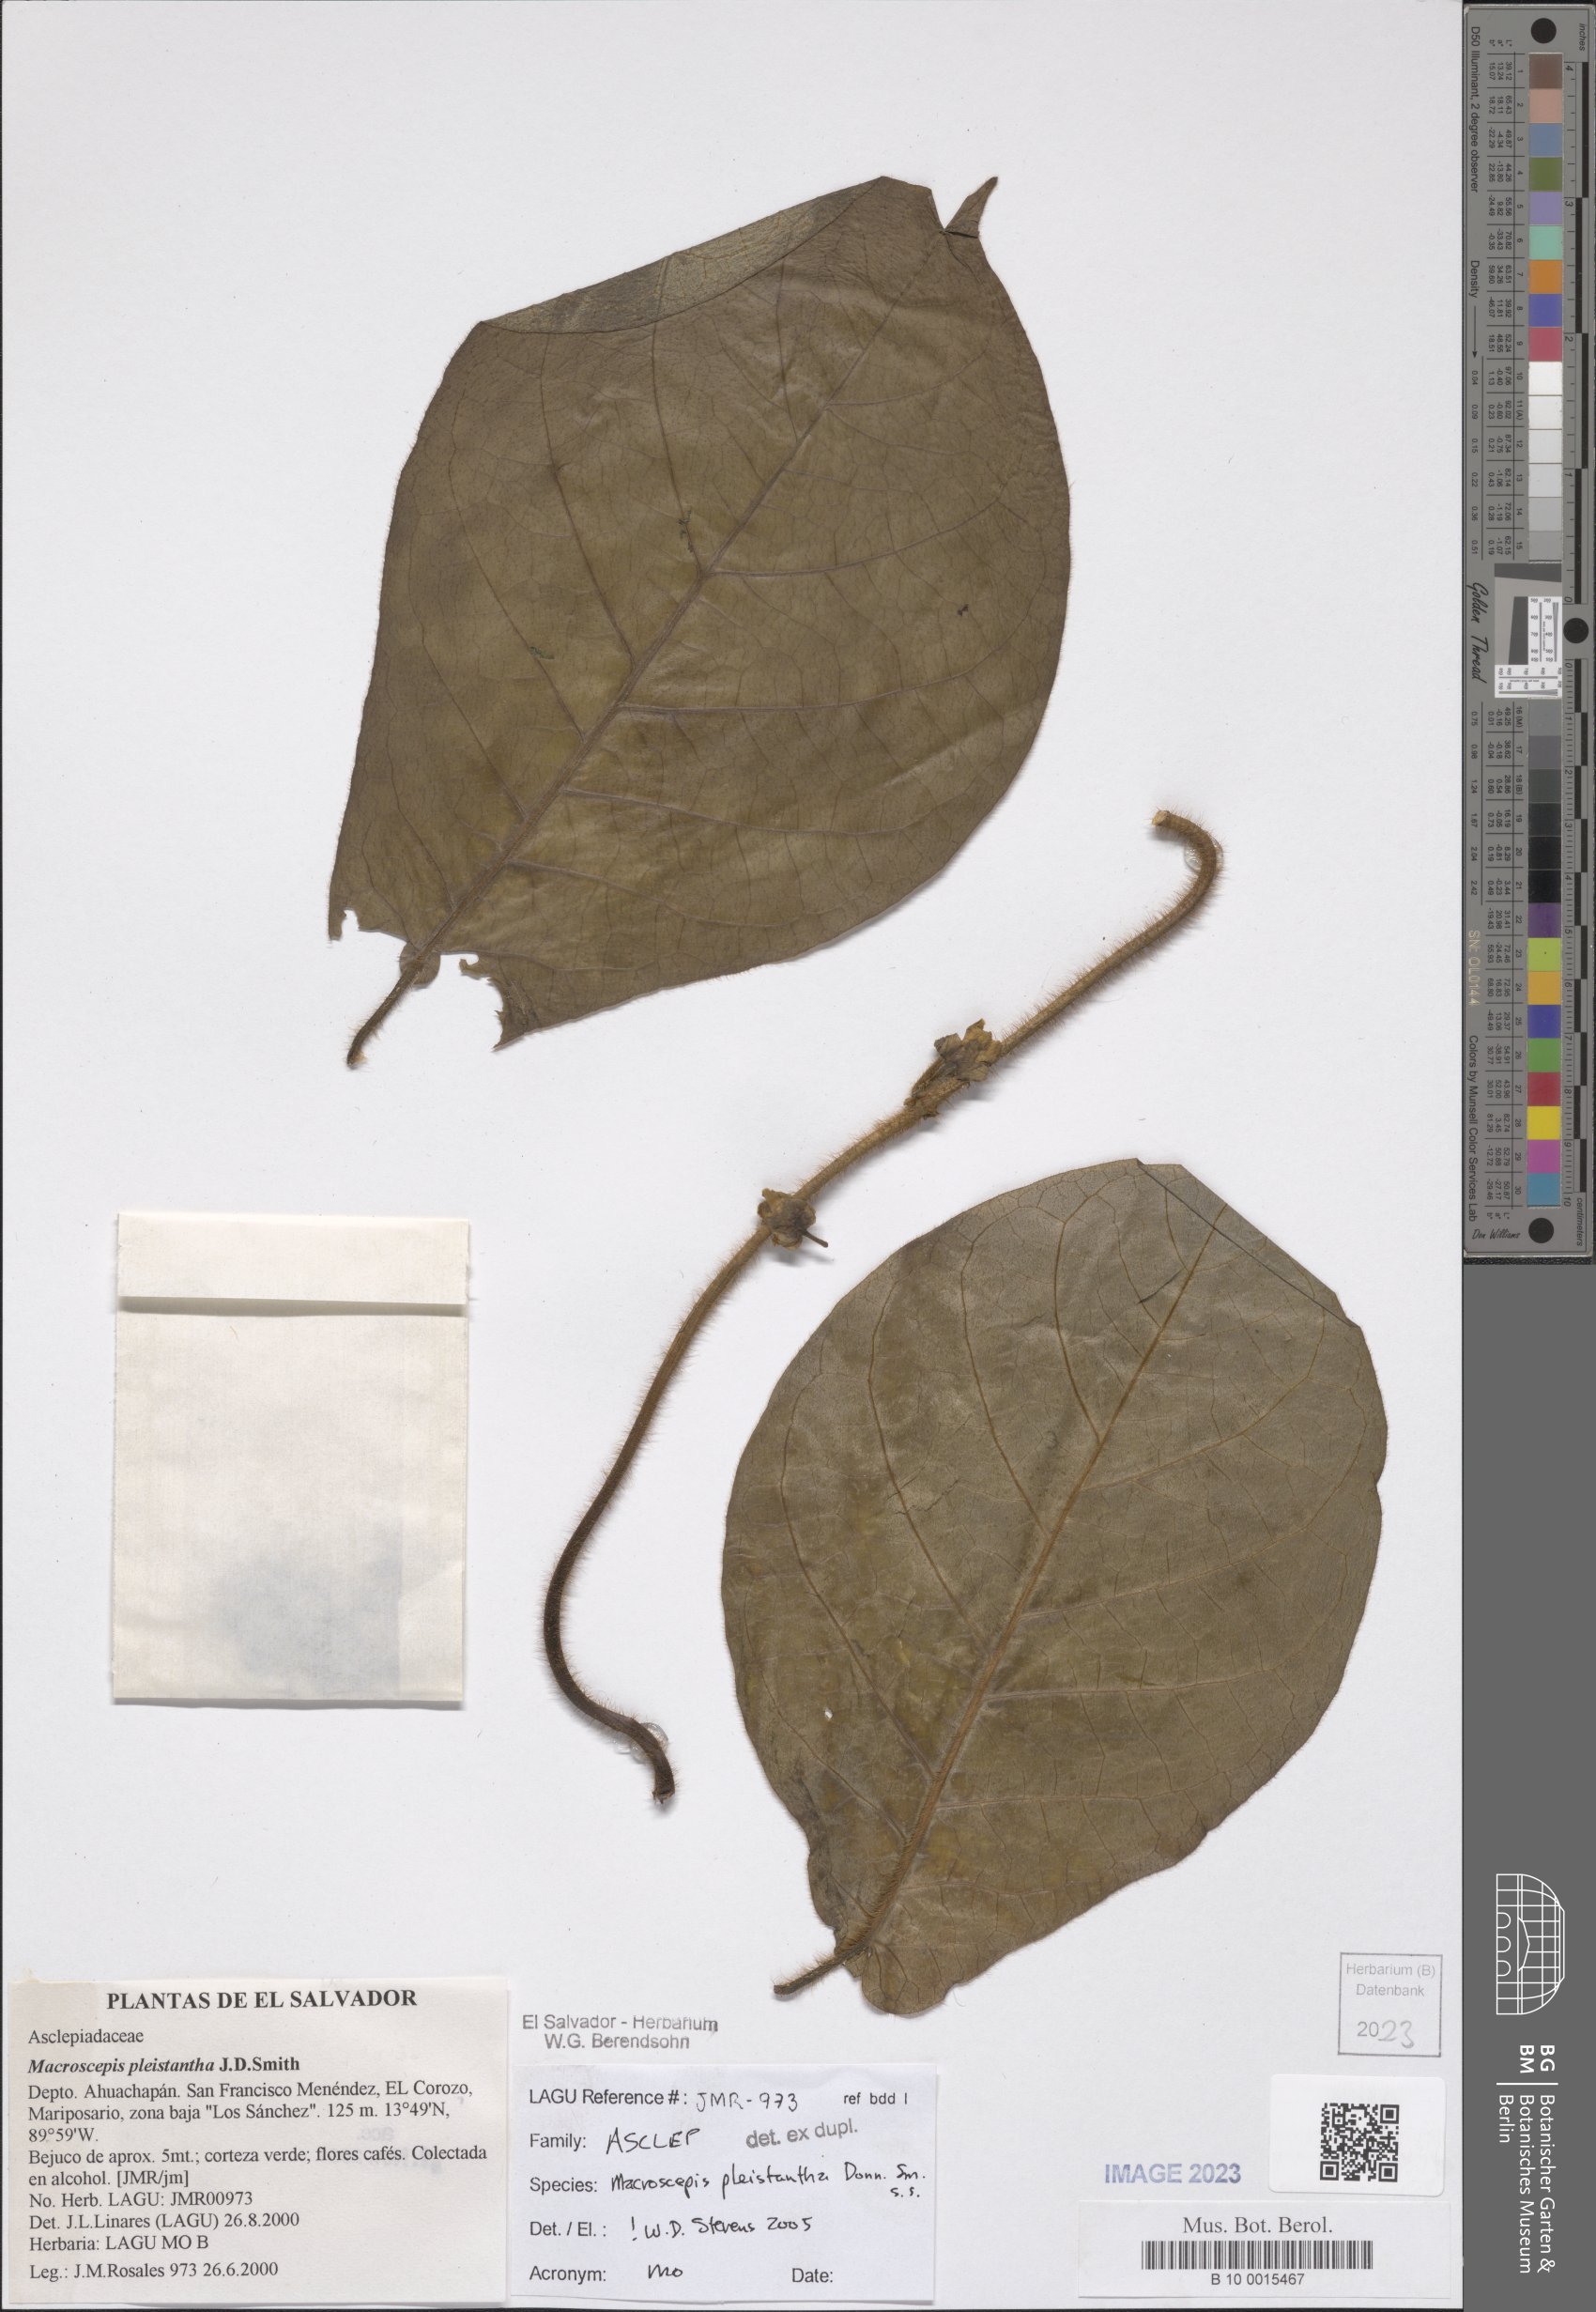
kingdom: Plantae
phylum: Tracheophyta
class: Magnoliopsida
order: Gentianales
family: Apocynaceae
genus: Macroscepis
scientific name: Macroscepis pleistantha
